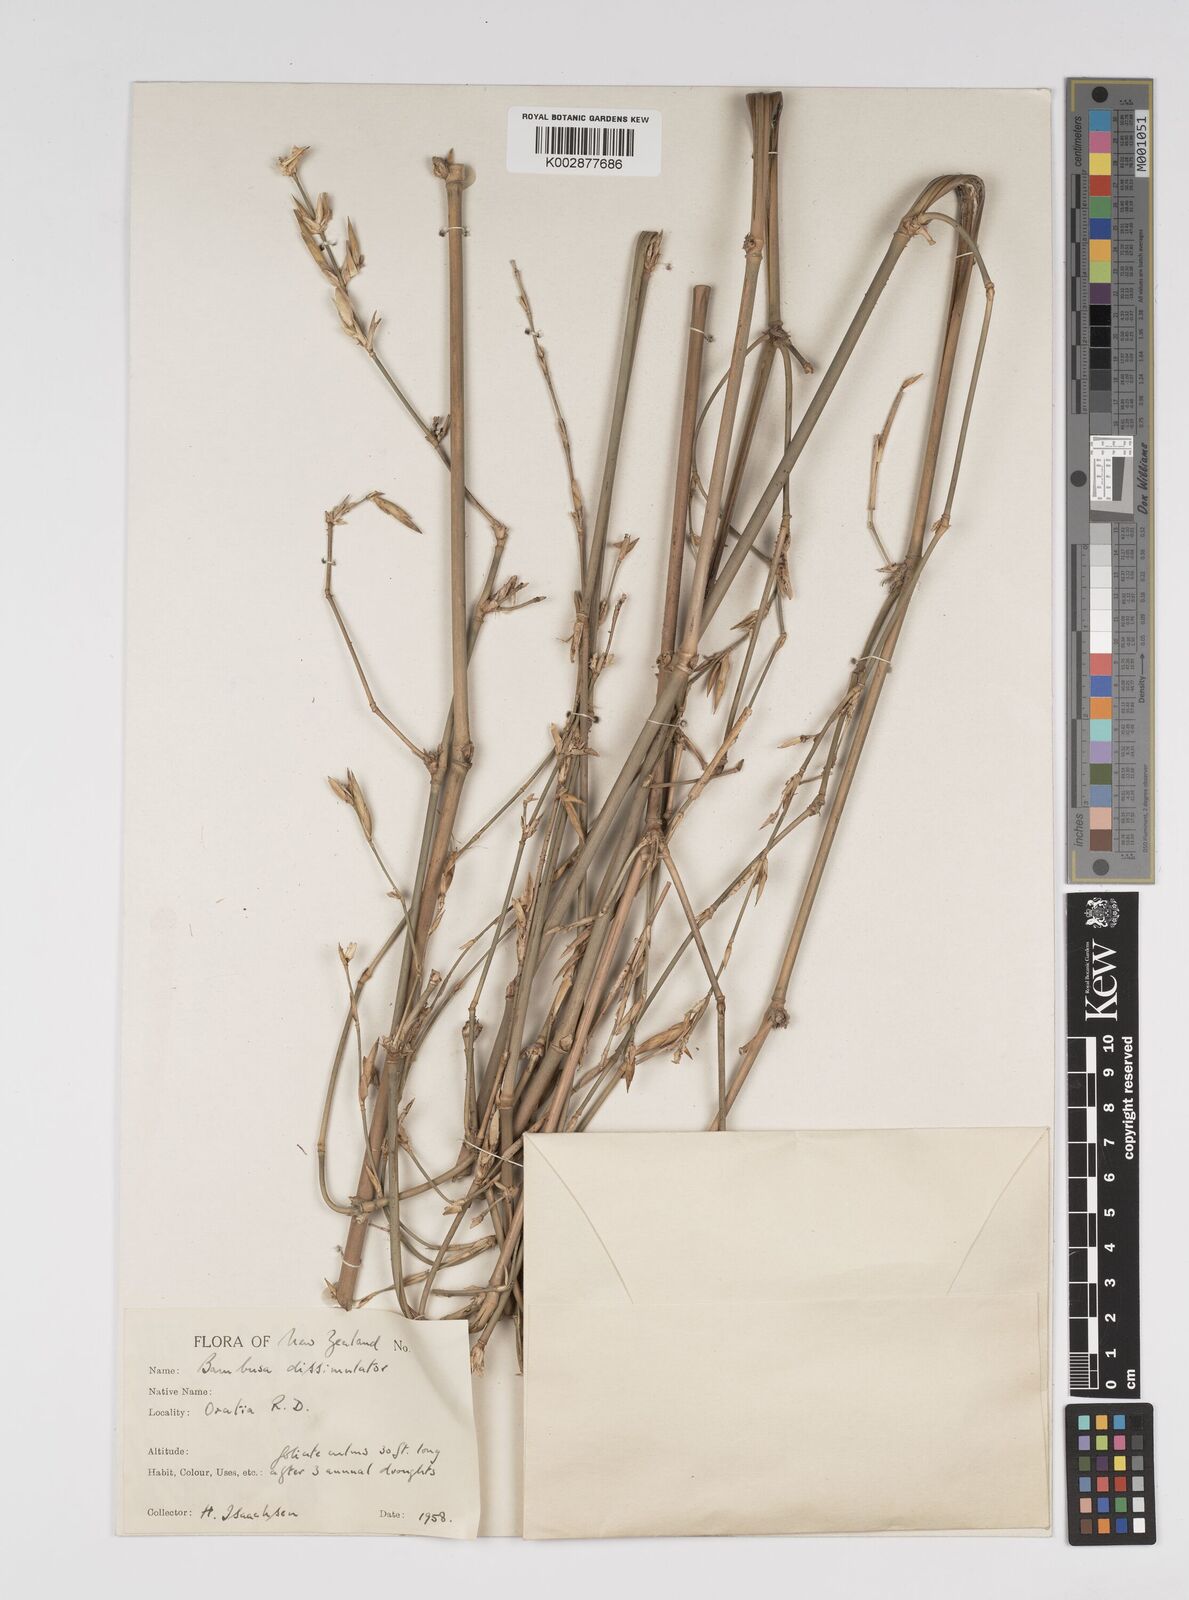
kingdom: Plantae
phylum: Tracheophyta
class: Liliopsida
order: Poales
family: Poaceae
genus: Bambusa
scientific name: Bambusa dissimulator
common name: Muddy bamboo
